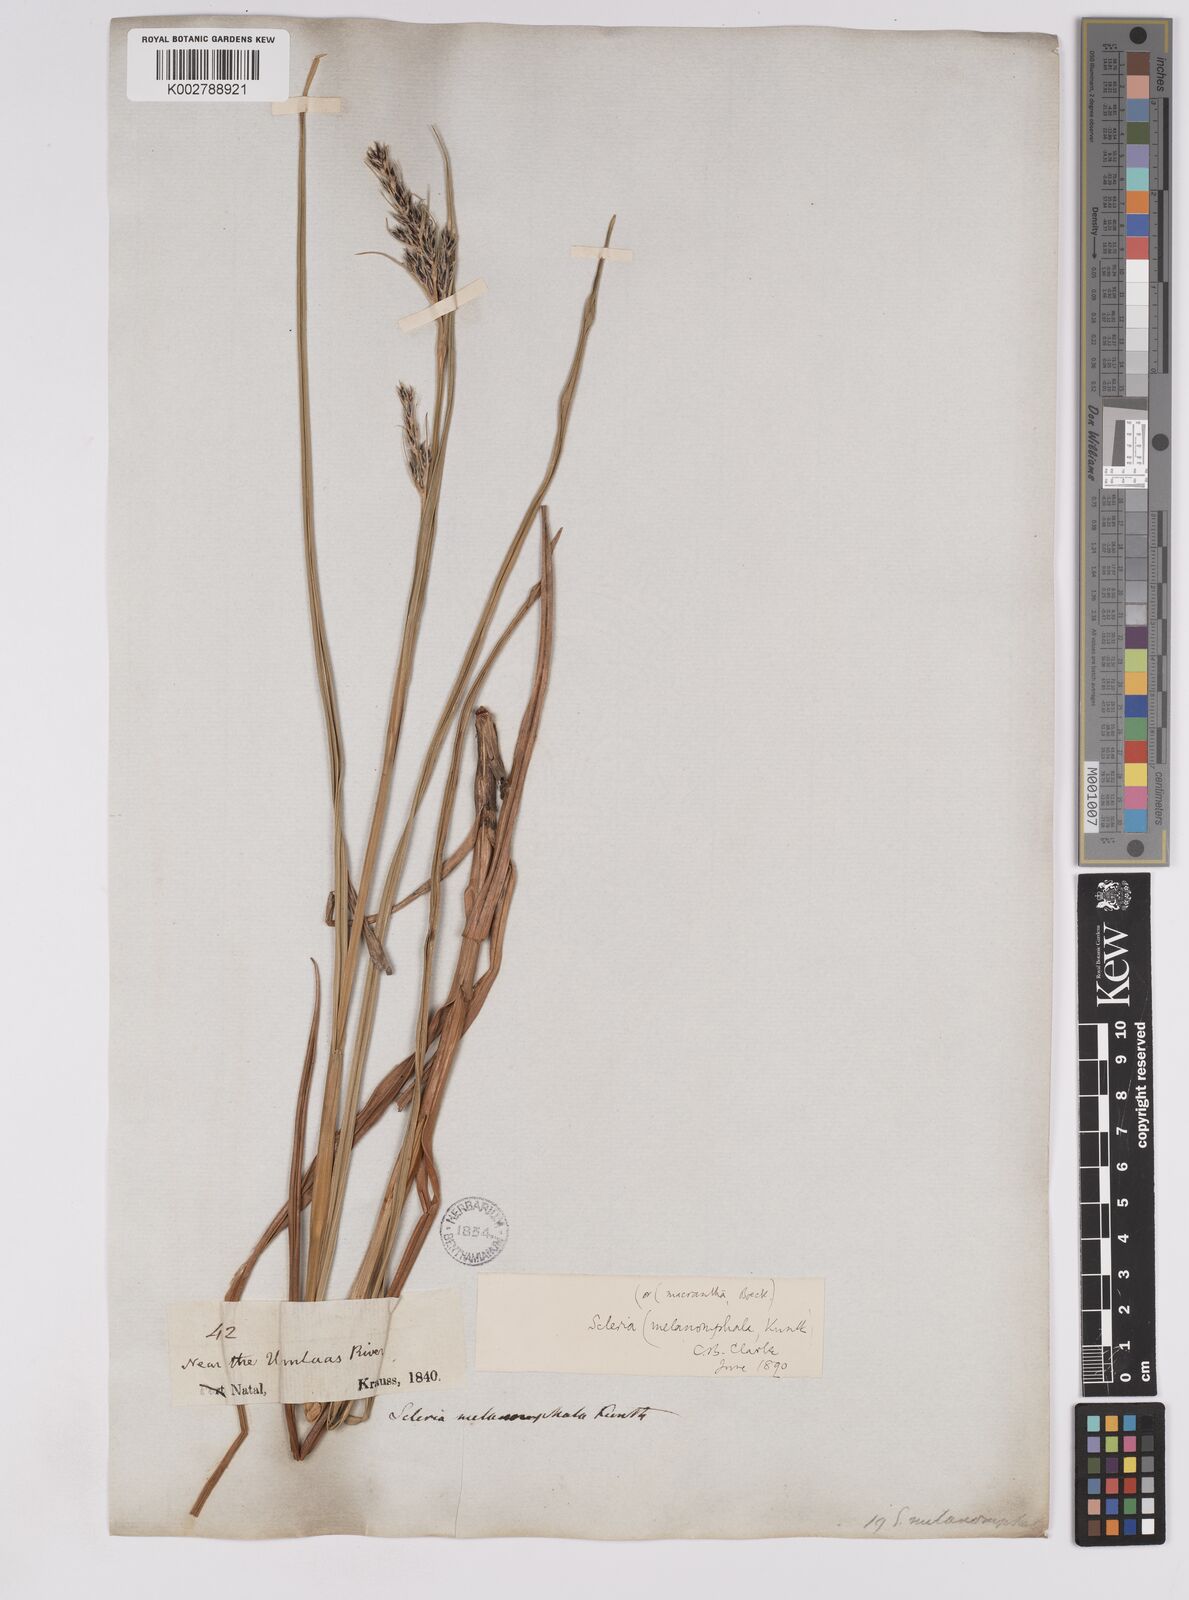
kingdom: Plantae
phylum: Tracheophyta
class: Liliopsida
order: Poales
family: Cyperaceae
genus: Scleria
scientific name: Scleria melanomphala
